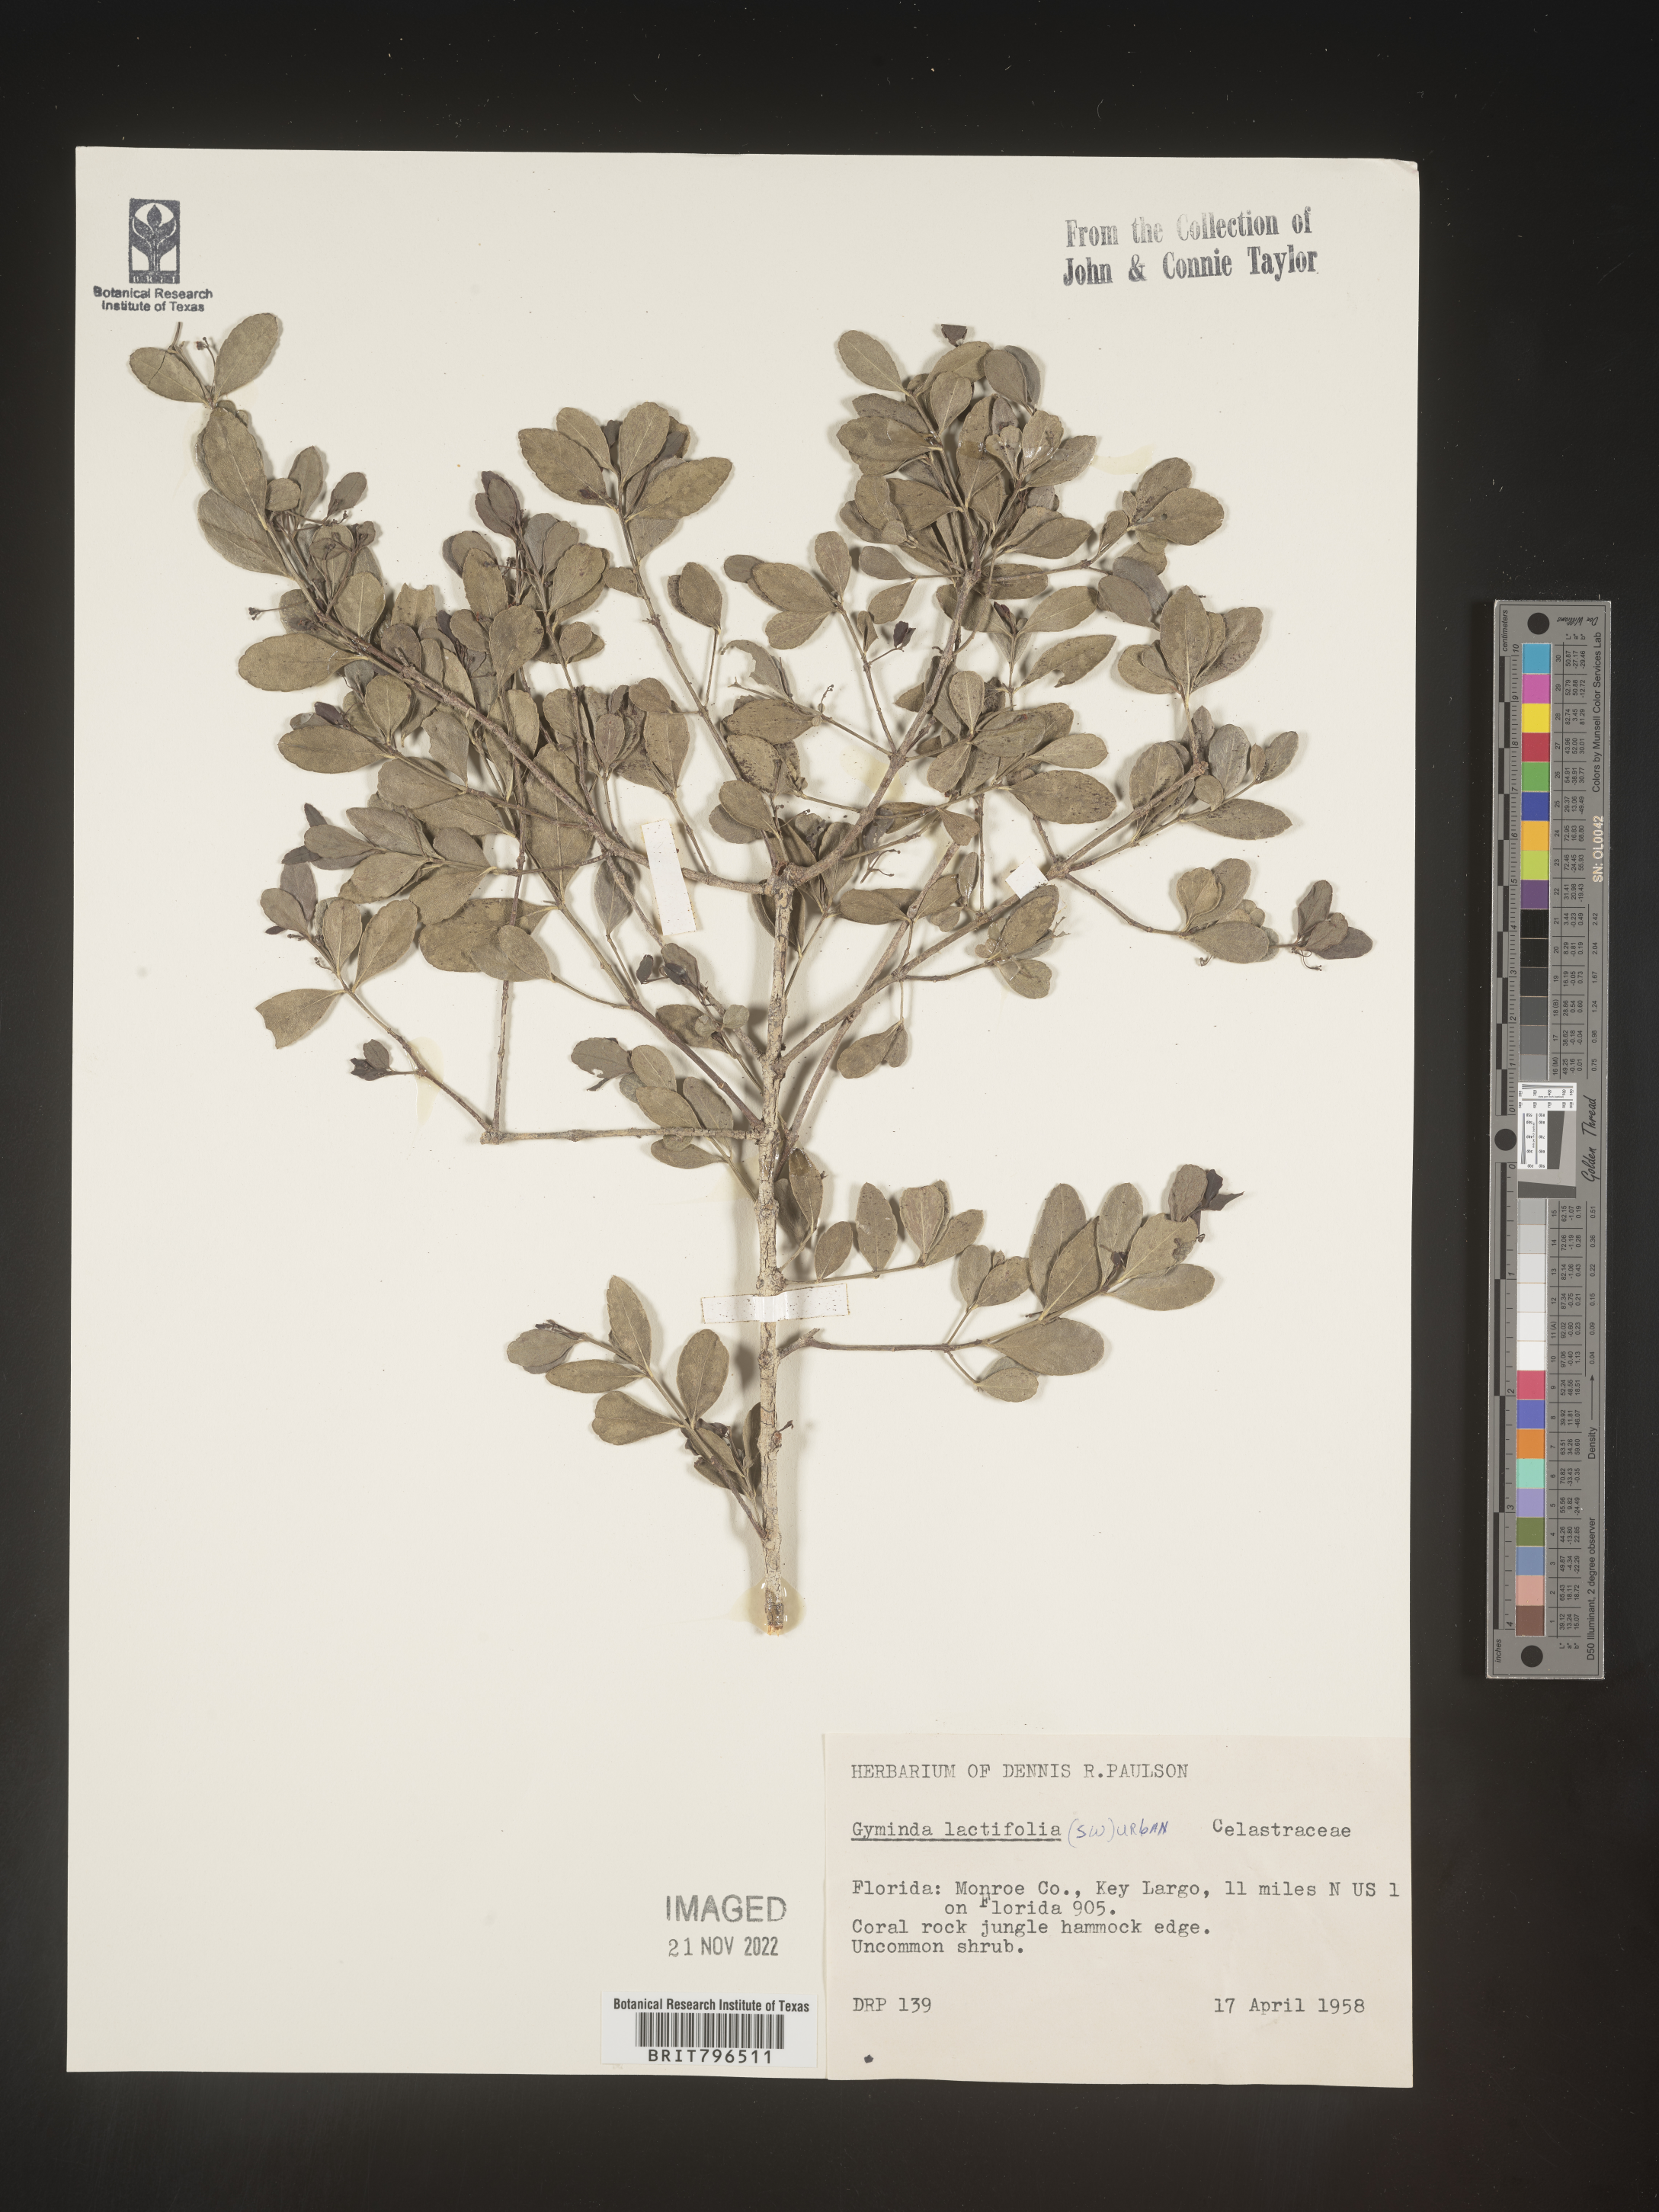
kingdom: Plantae
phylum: Tracheophyta
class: Magnoliopsida
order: Celastrales
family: Celastraceae
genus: Gyminda
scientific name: Gyminda
